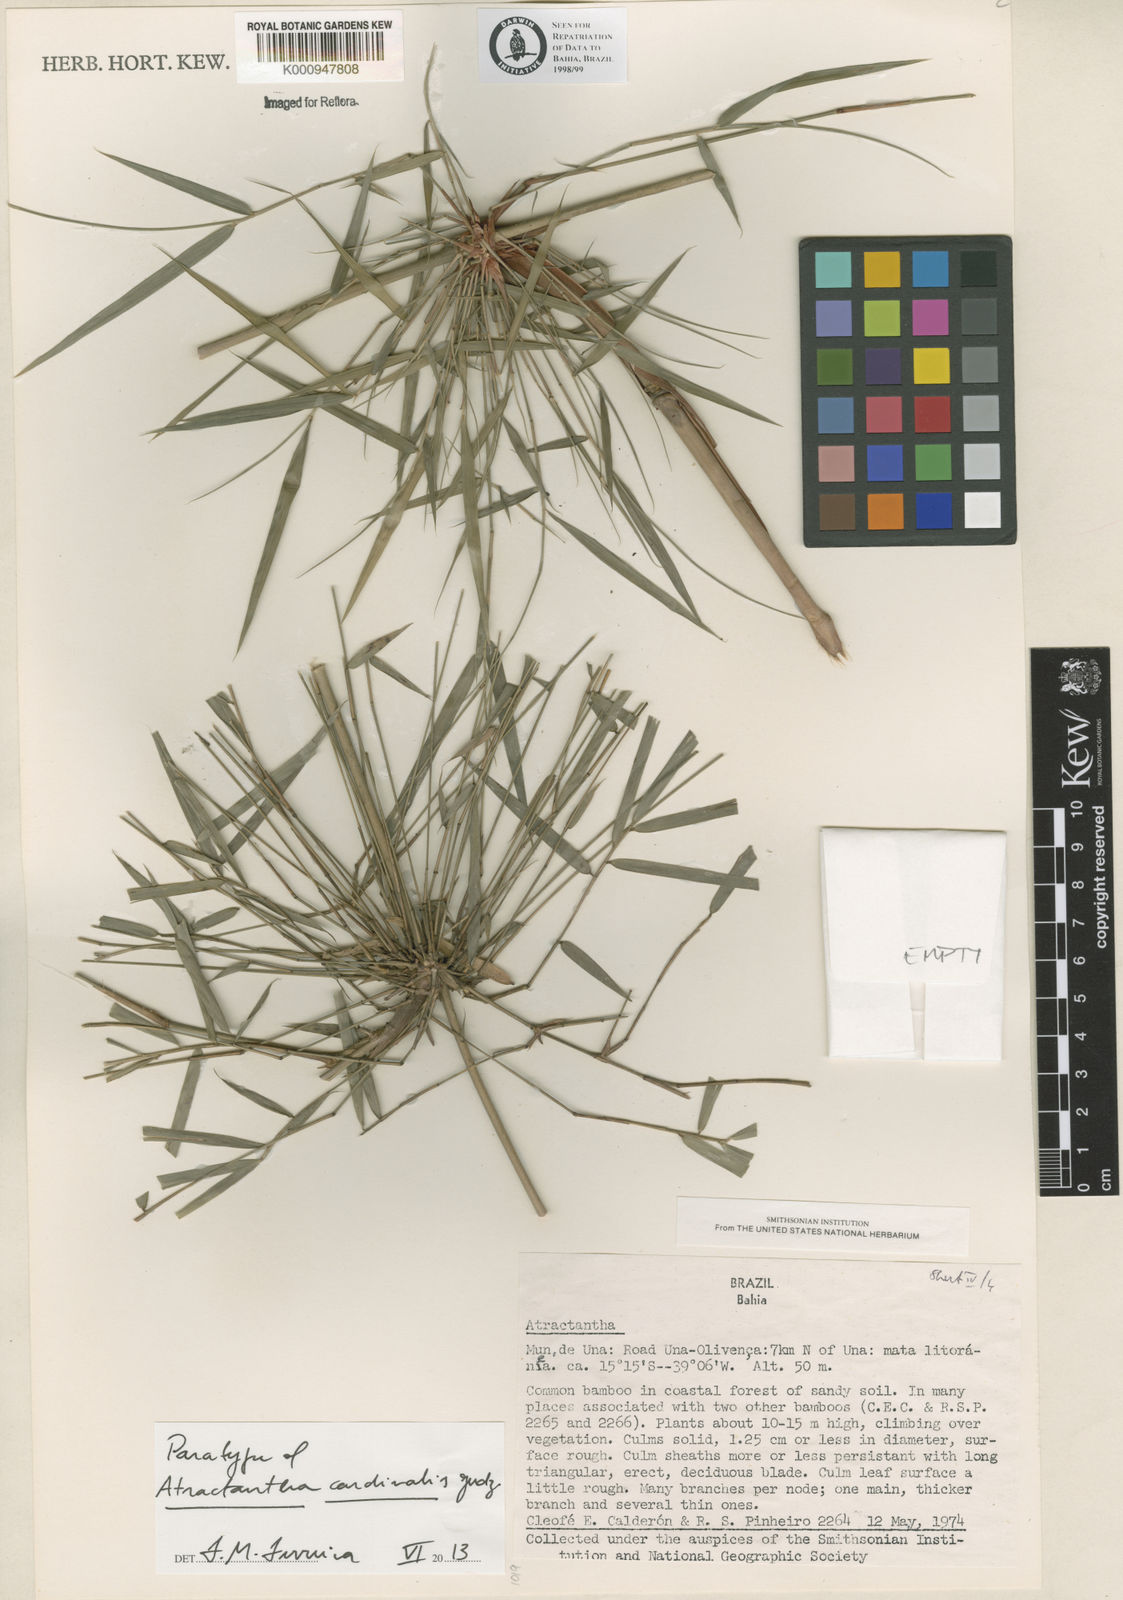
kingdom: Plantae
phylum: Tracheophyta
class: Liliopsida
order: Poales
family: Poaceae
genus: Atractantha
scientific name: Atractantha cardinalis
